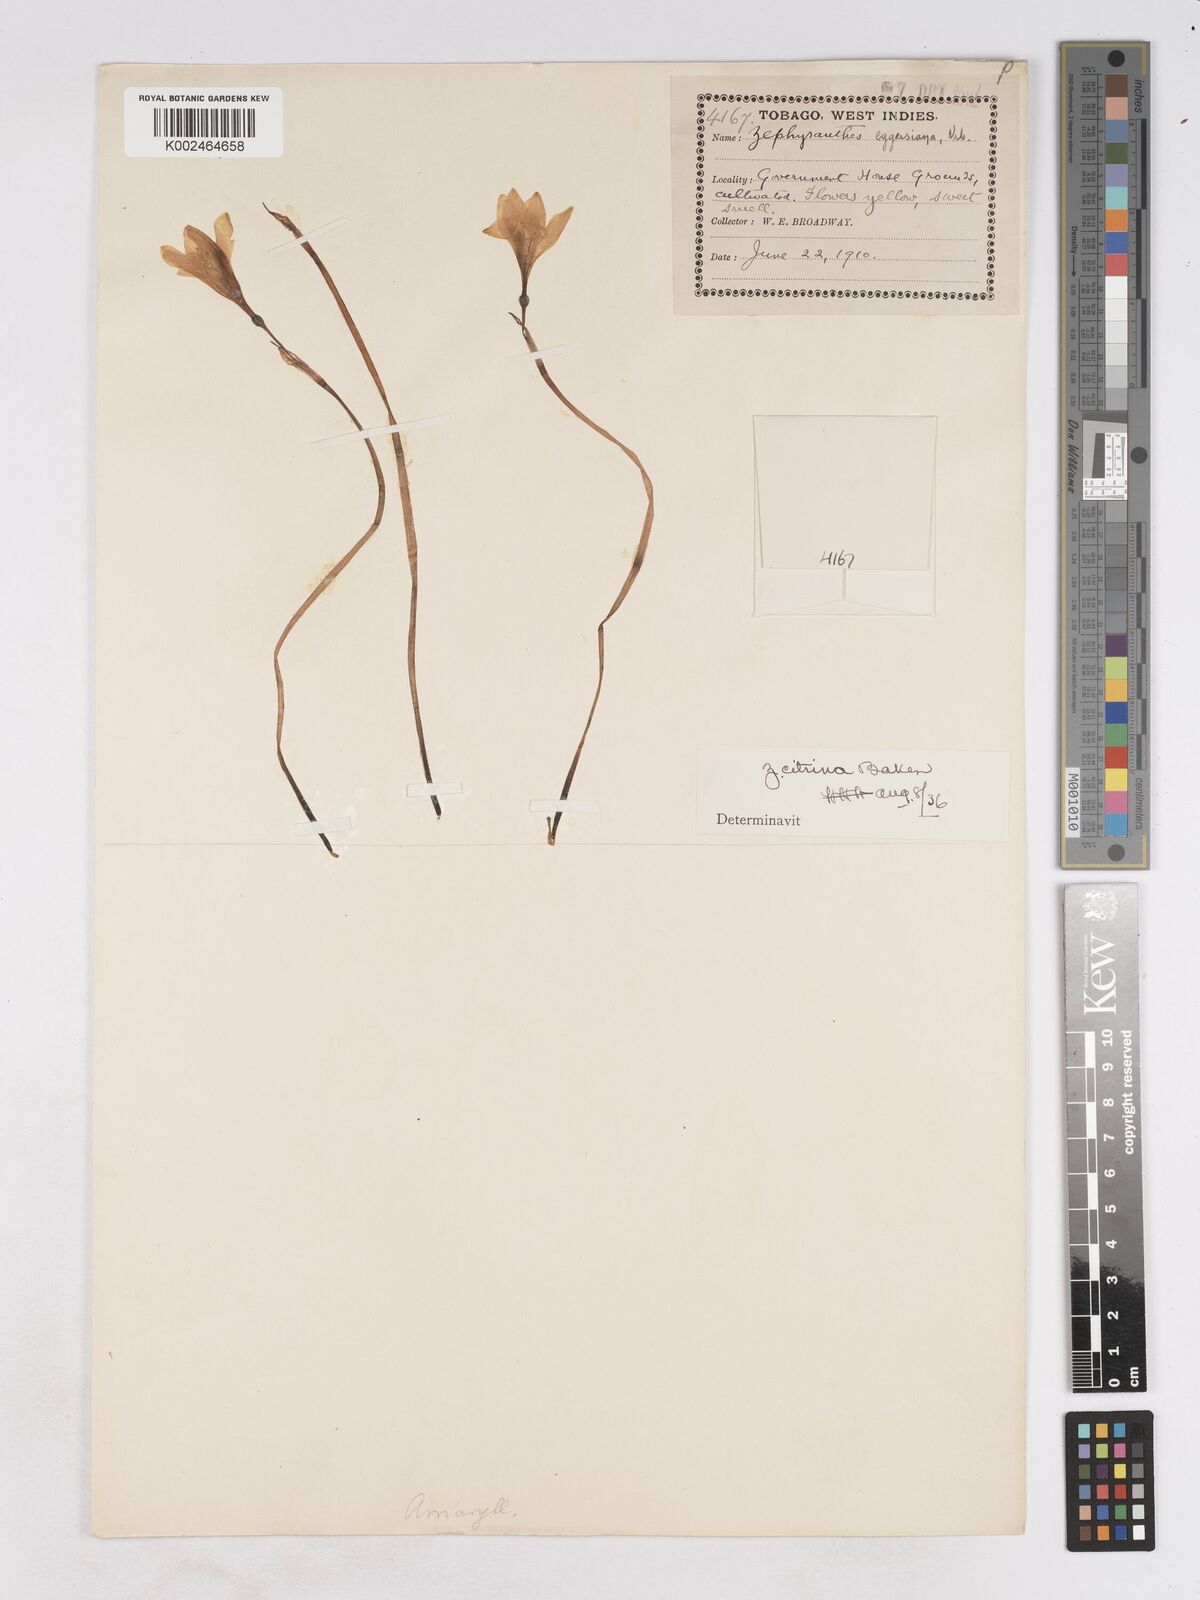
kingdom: Plantae
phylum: Tracheophyta
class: Liliopsida
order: Asparagales
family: Amaryllidaceae
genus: Zephyranthes
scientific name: Zephyranthes citrina
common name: Citron zephyrlily
